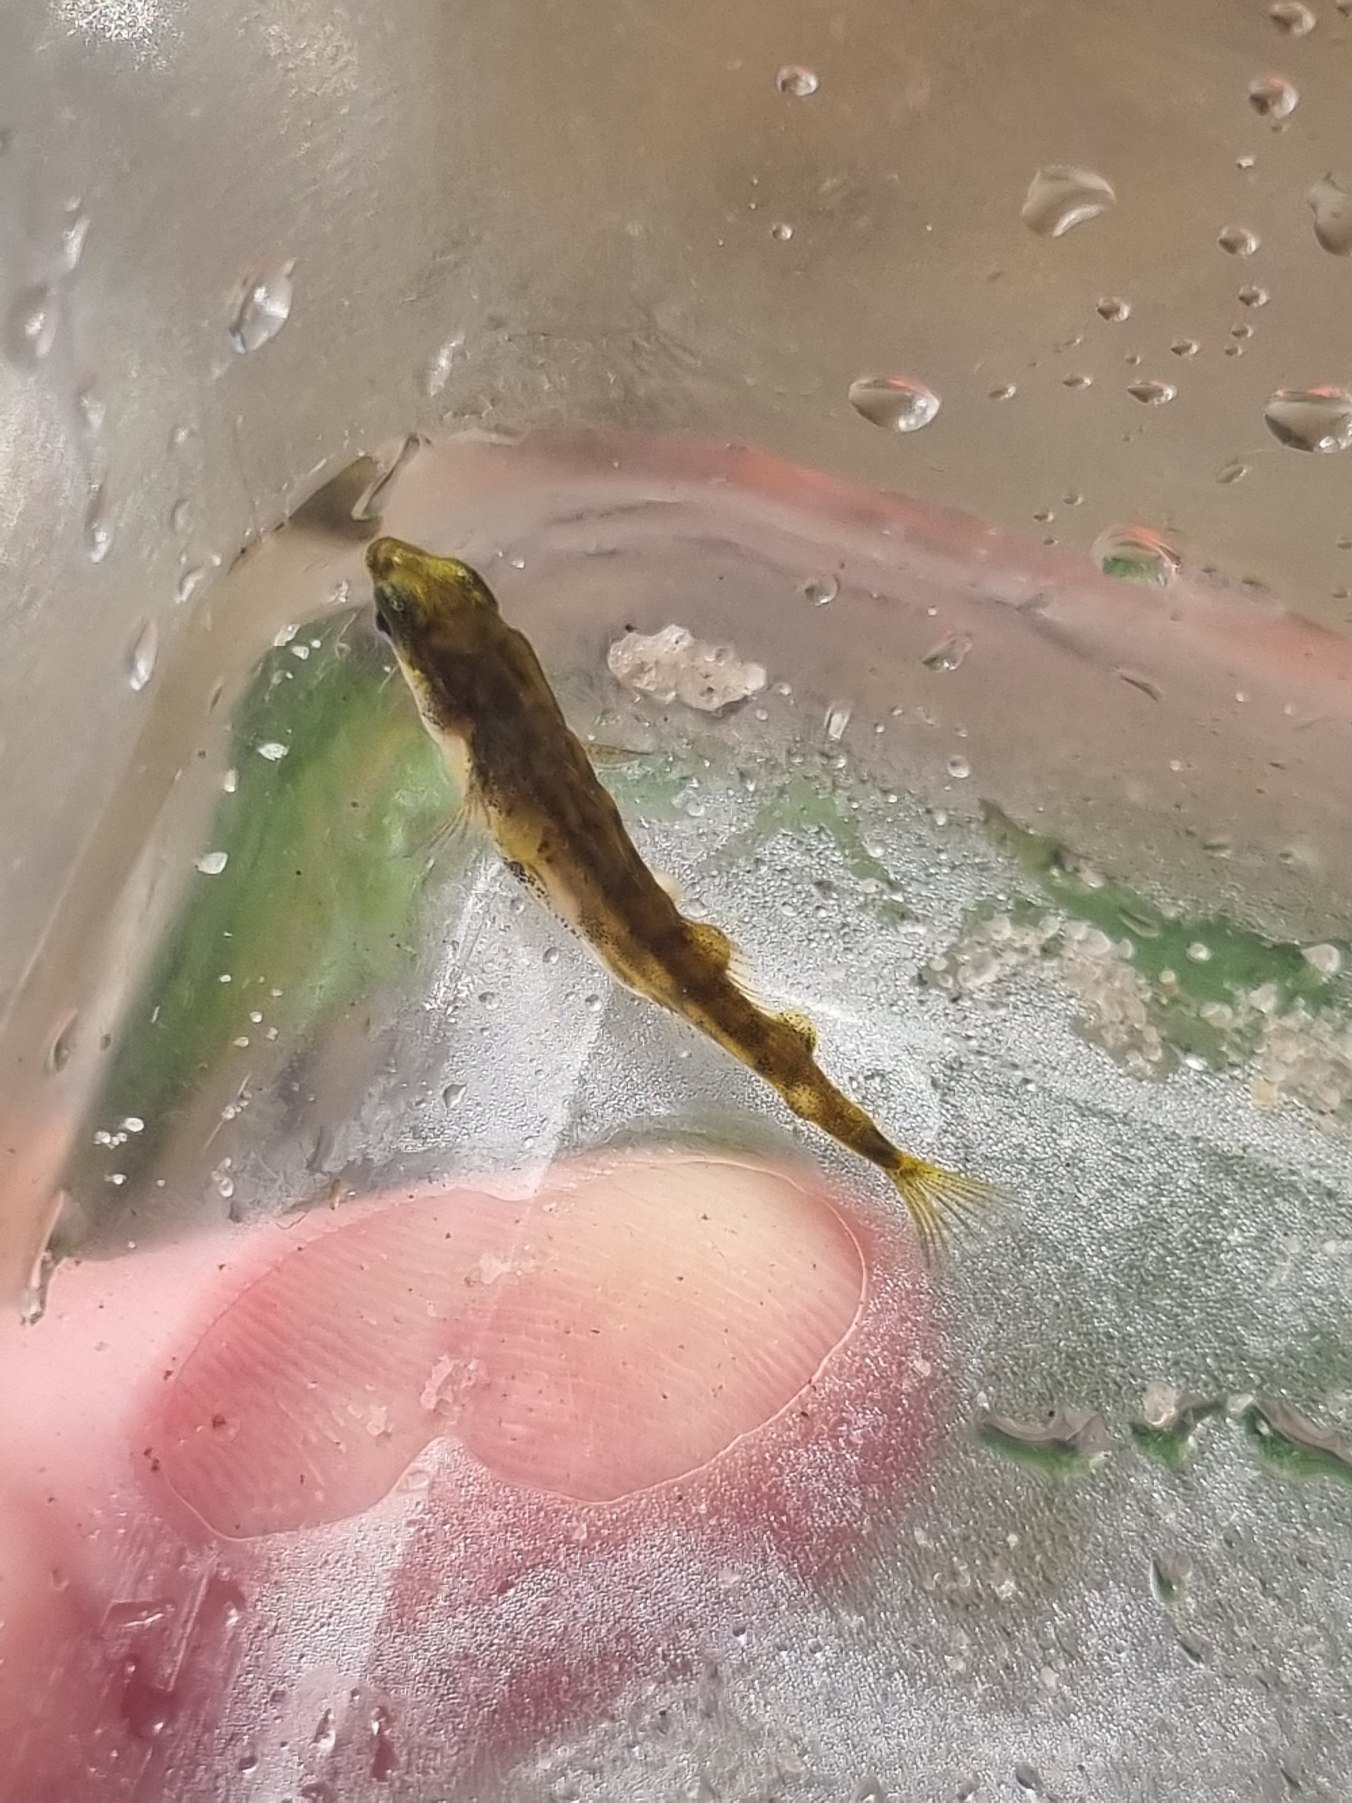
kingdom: Animalia
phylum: Chordata
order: Gasterosteiformes
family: Gasterosteidae
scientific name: Gasterosteidae
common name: Hundestejlefamilien
